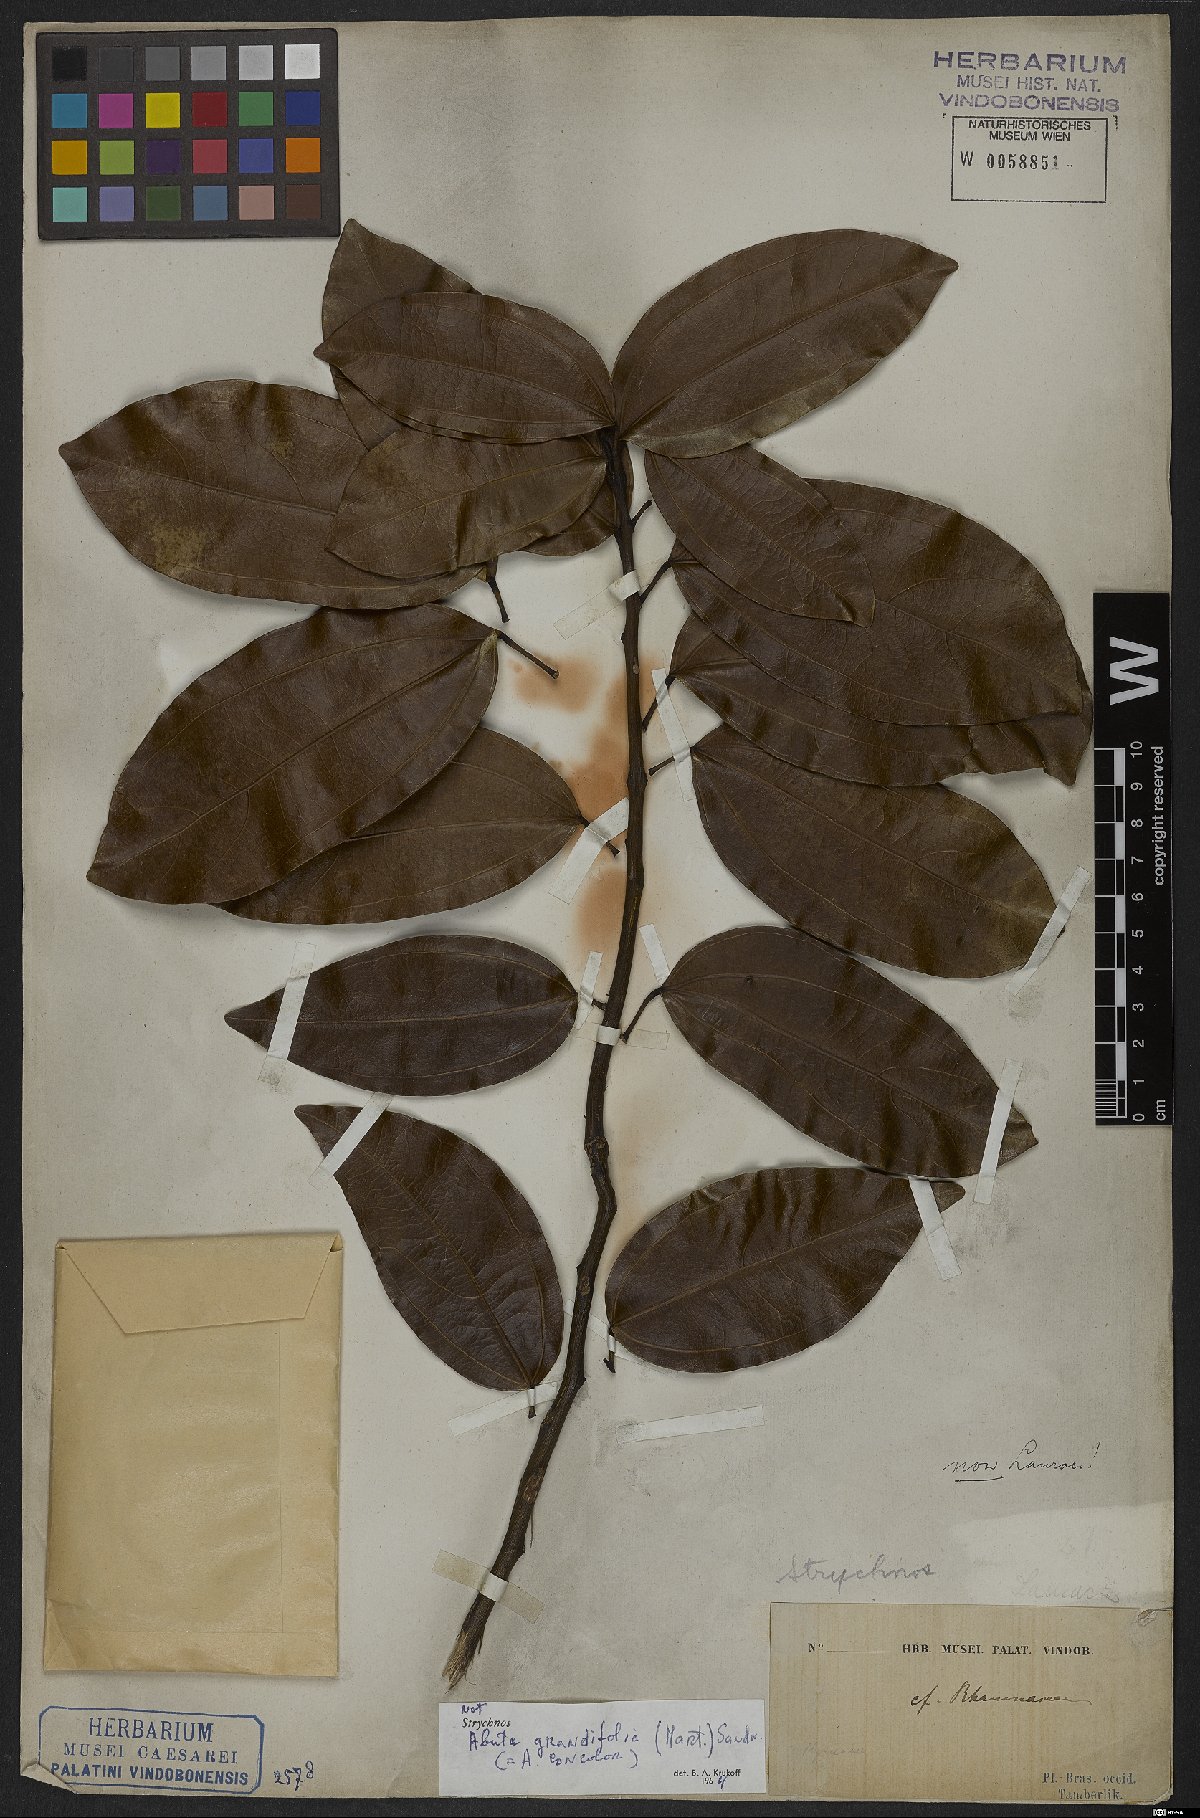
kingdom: Plantae
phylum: Tracheophyta
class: Magnoliopsida
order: Ranunculales
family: Menispermaceae
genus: Abuta
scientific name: Abuta grandifolia
